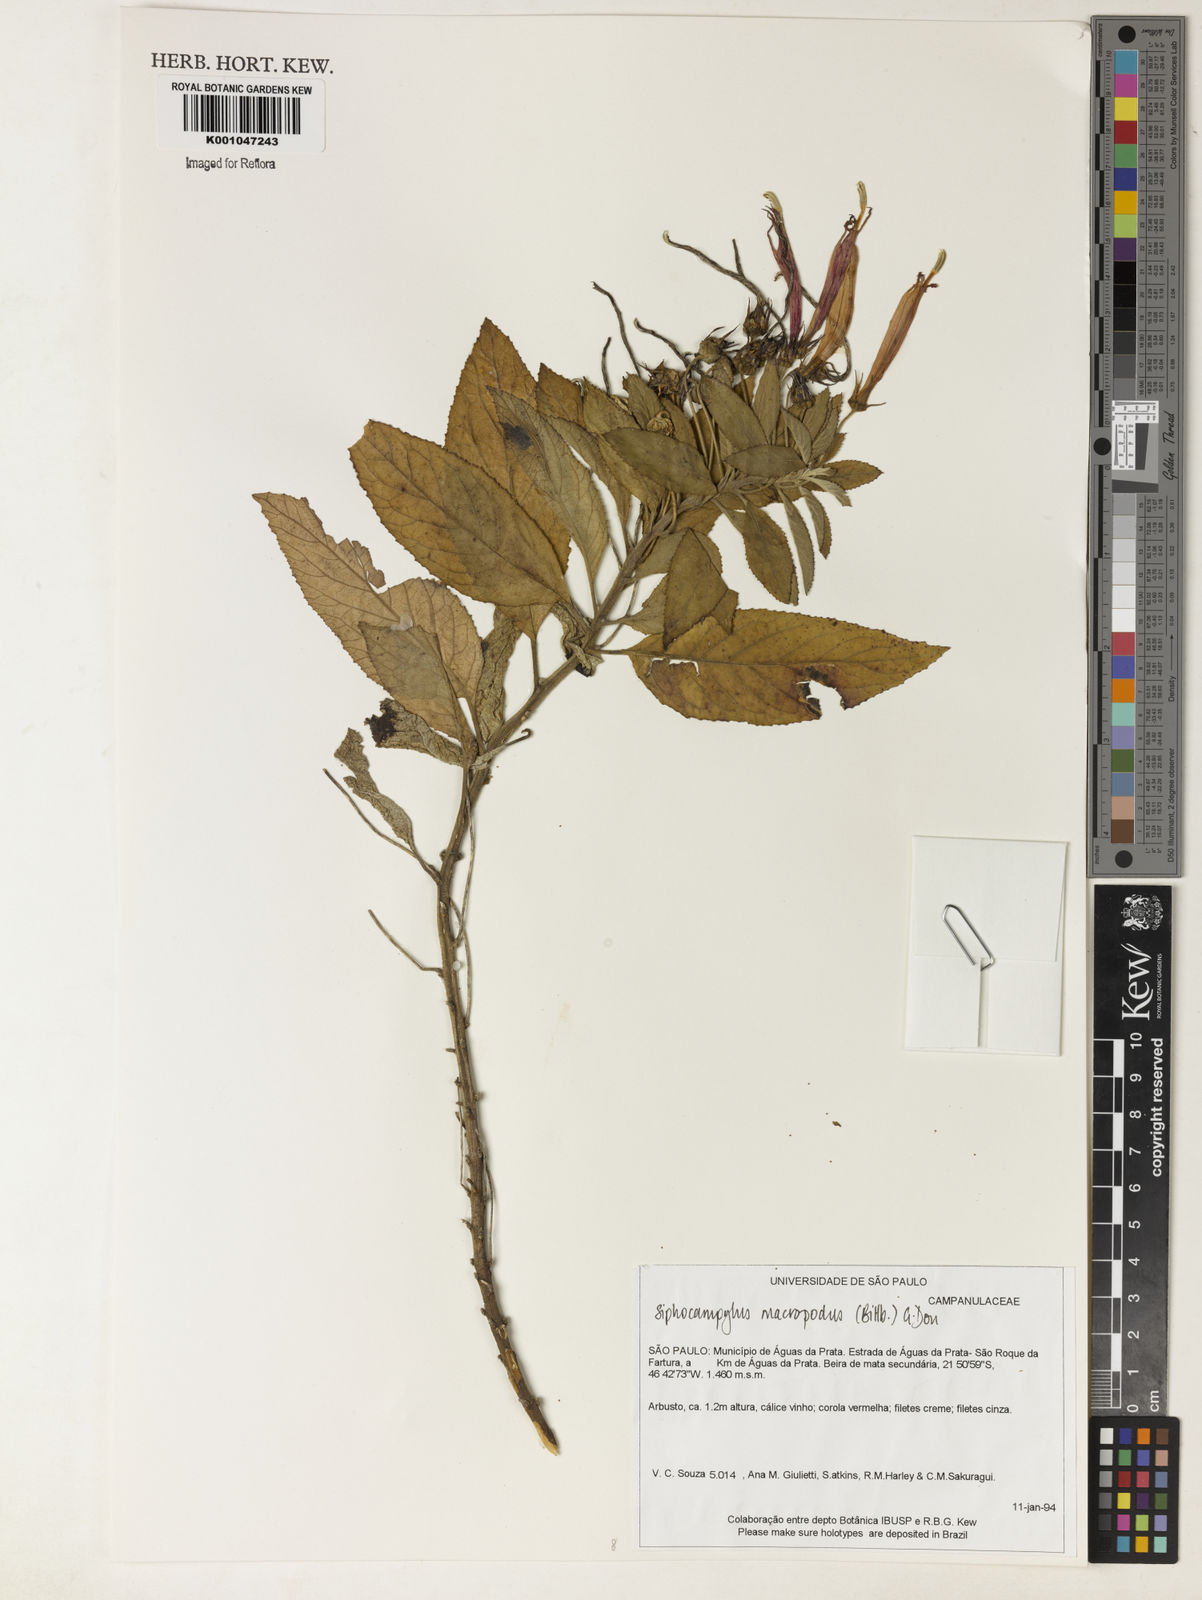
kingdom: Plantae
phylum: Tracheophyta
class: Magnoliopsida
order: Asterales
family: Campanulaceae
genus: Siphocampylus
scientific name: Siphocampylus macropodus
